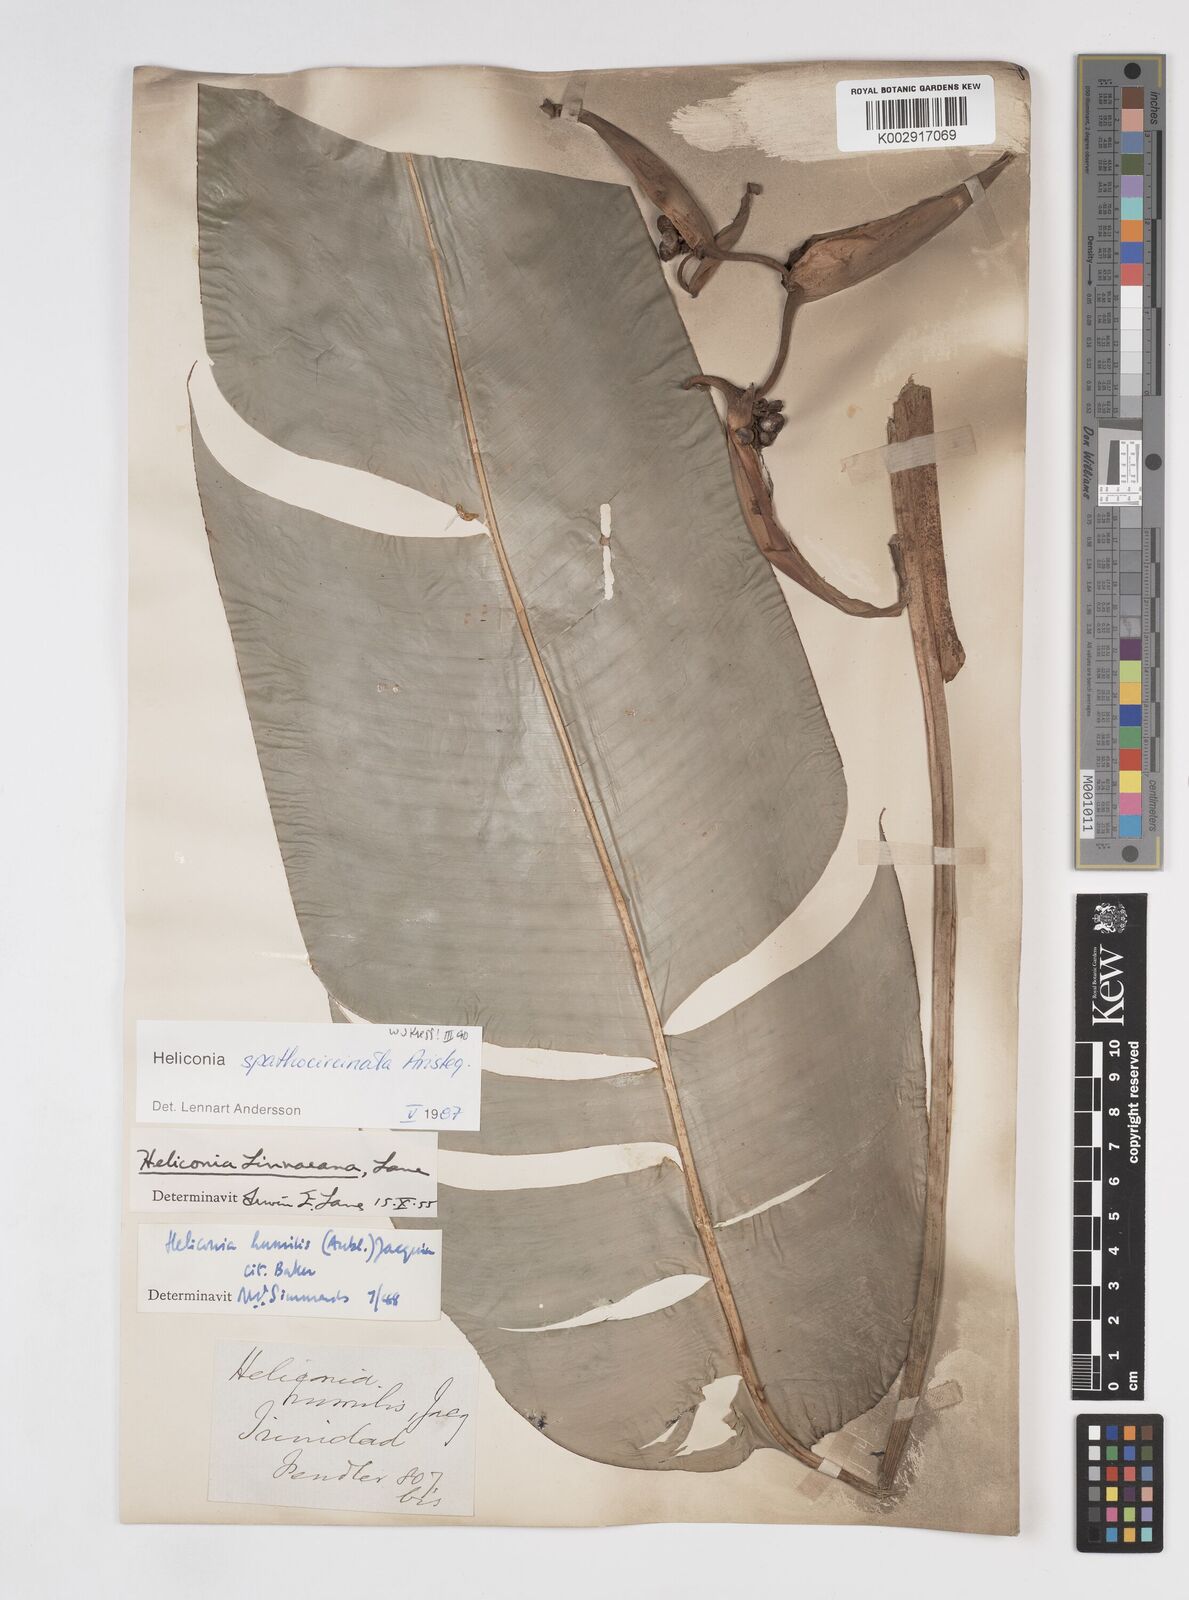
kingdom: Plantae
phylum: Tracheophyta
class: Liliopsida
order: Zingiberales
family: Heliconiaceae
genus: Heliconia
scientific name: Heliconia spathocircinata
